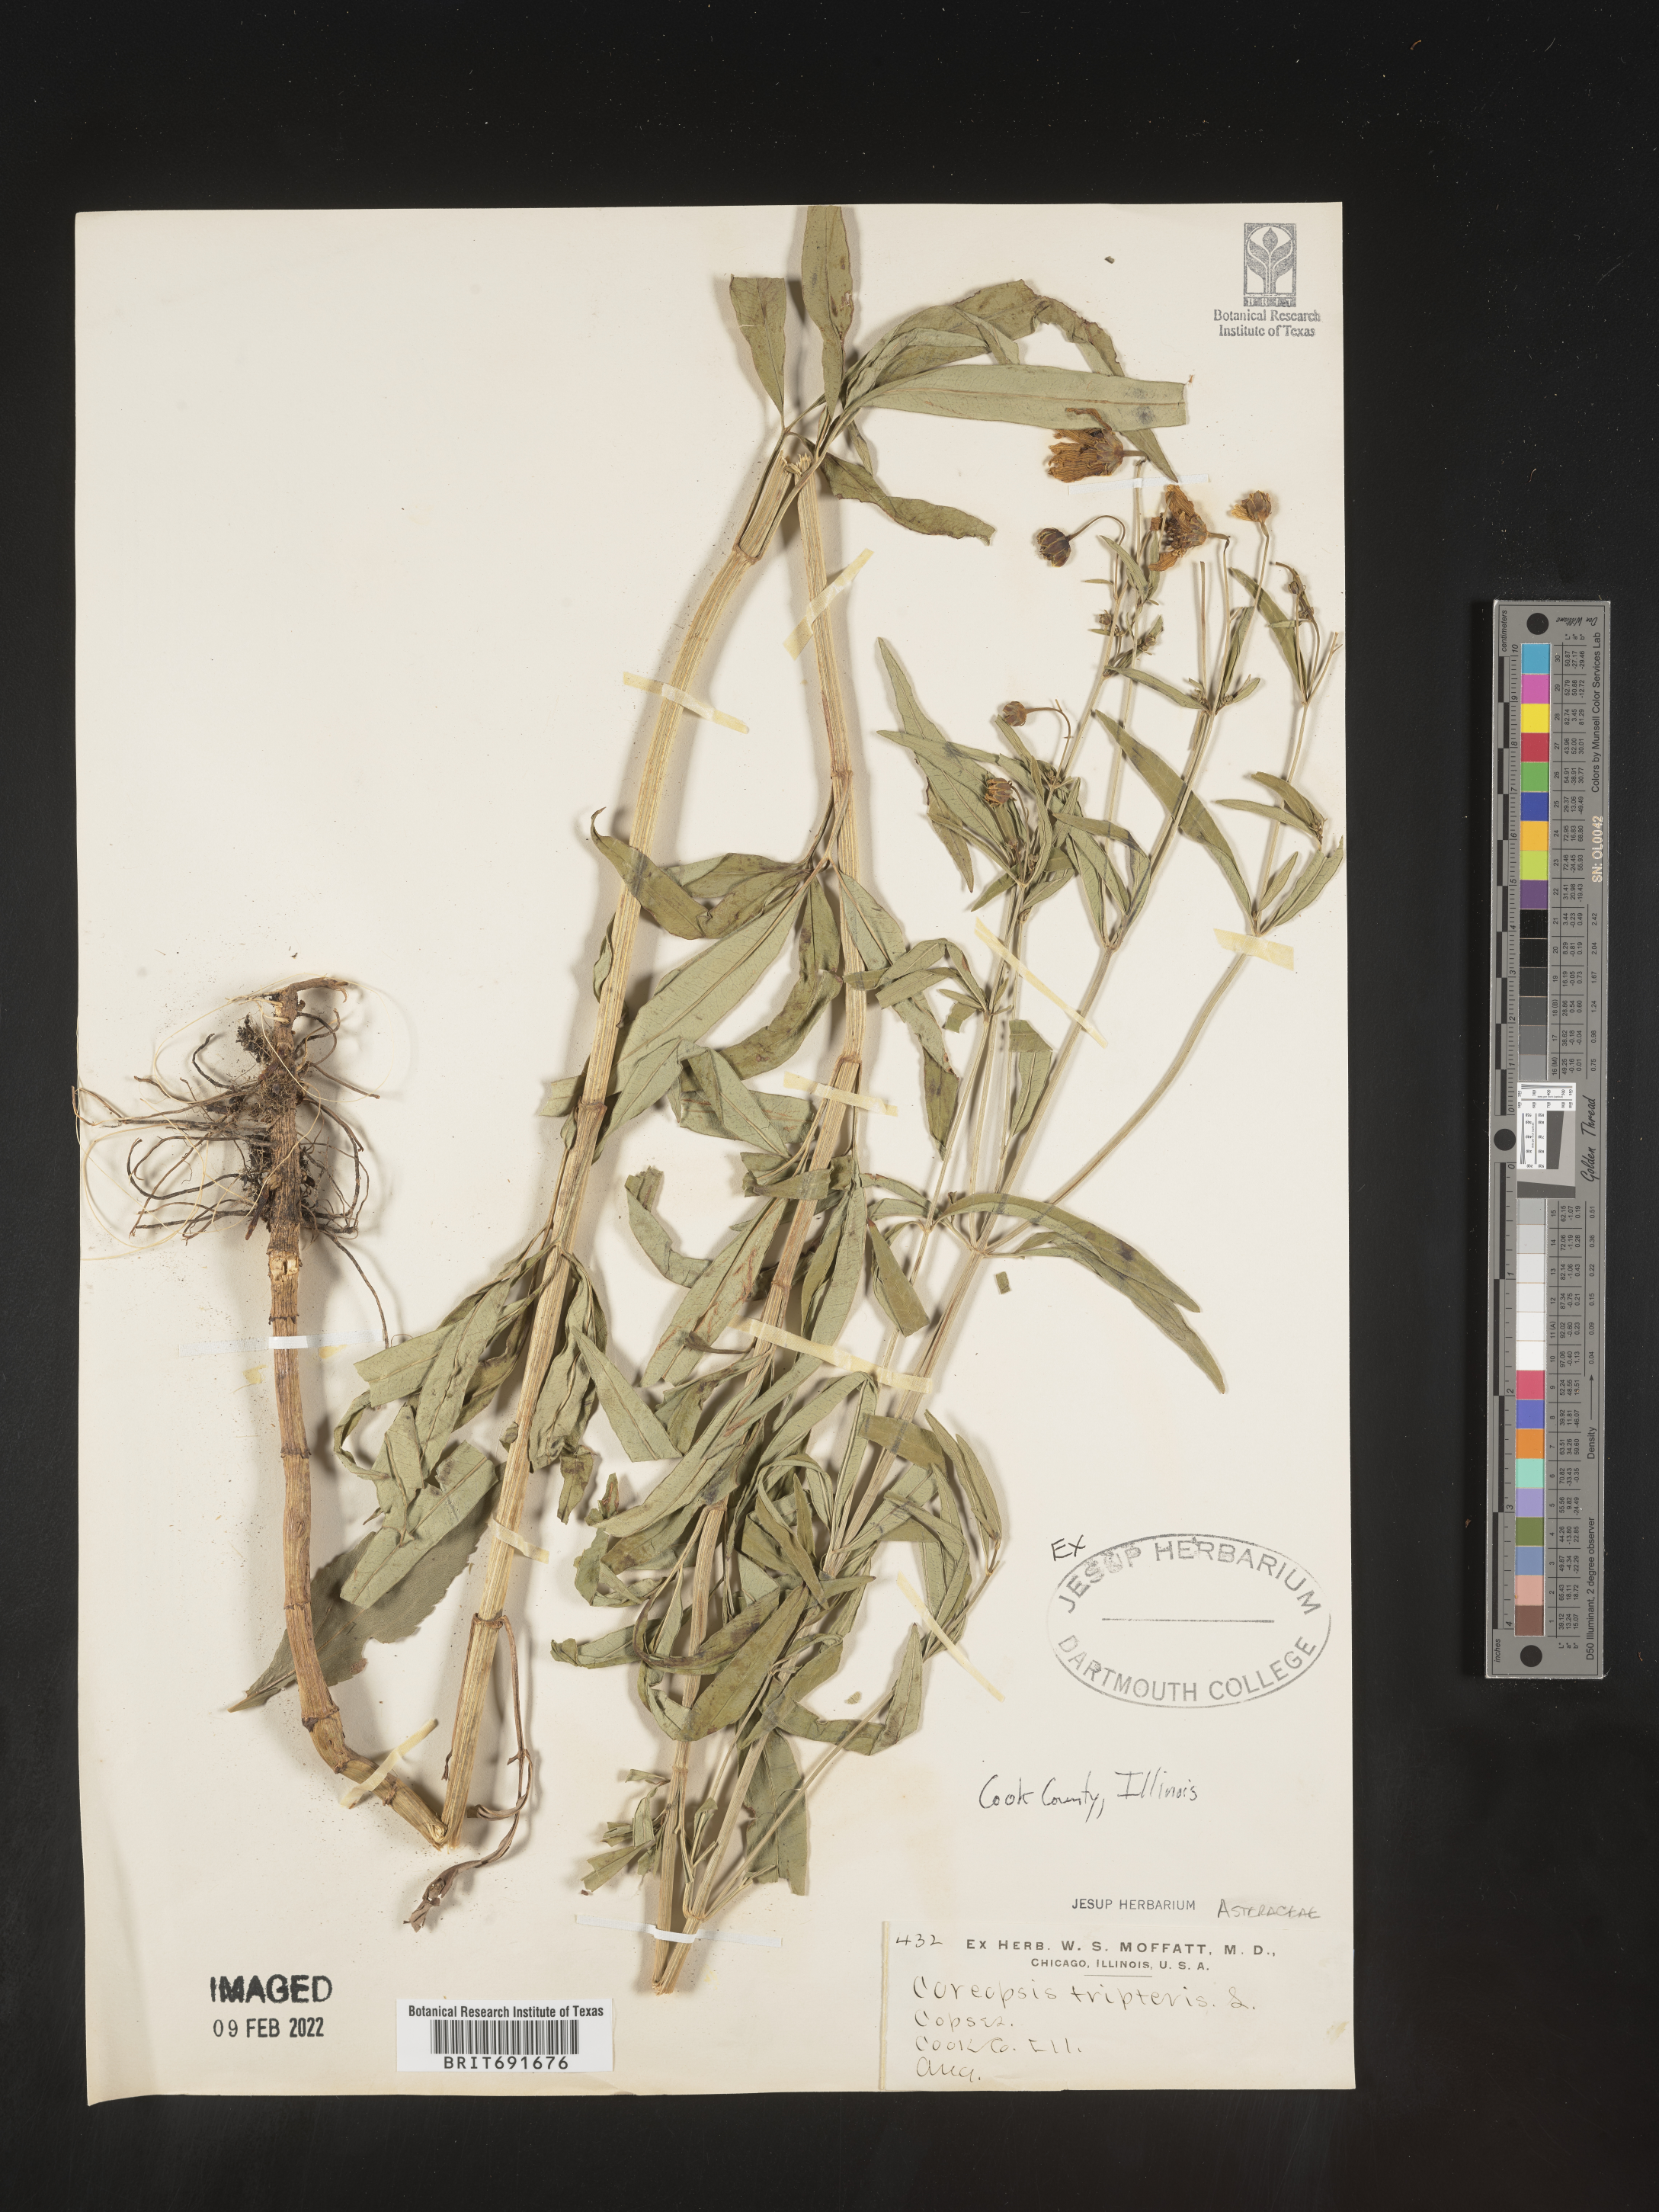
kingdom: Plantae
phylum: Tracheophyta
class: Magnoliopsida
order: Asterales
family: Asteraceae
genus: Coreopsis
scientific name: Coreopsis tripteris
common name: Tall coreopsis
